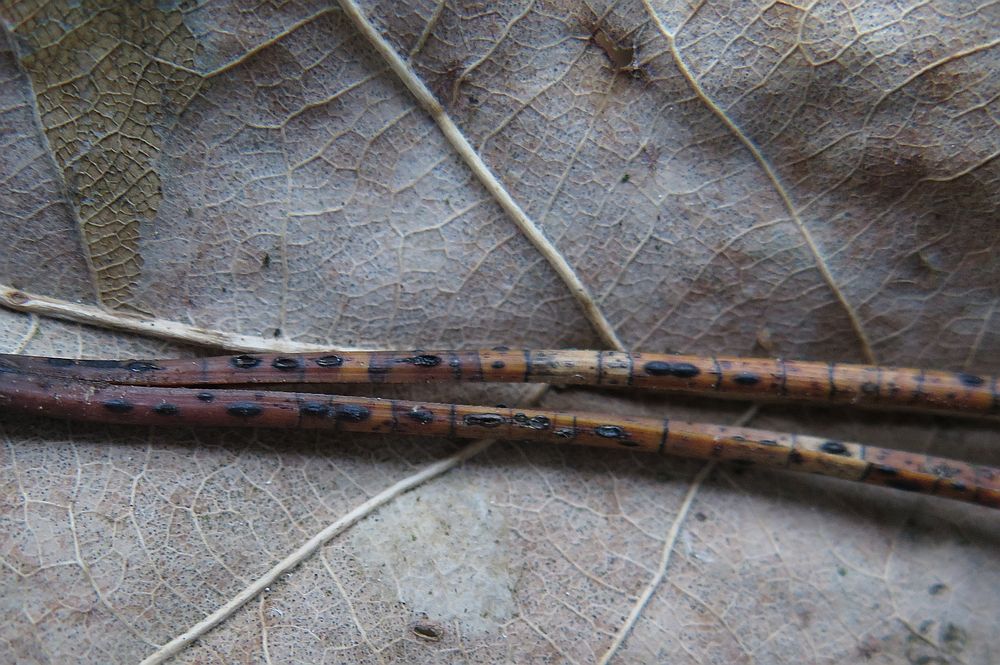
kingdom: Fungi
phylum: Ascomycota
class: Leotiomycetes
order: Rhytismatales
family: Rhytismataceae
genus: Lophodermium
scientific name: Lophodermium pinastri
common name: fyrre-fureplet
